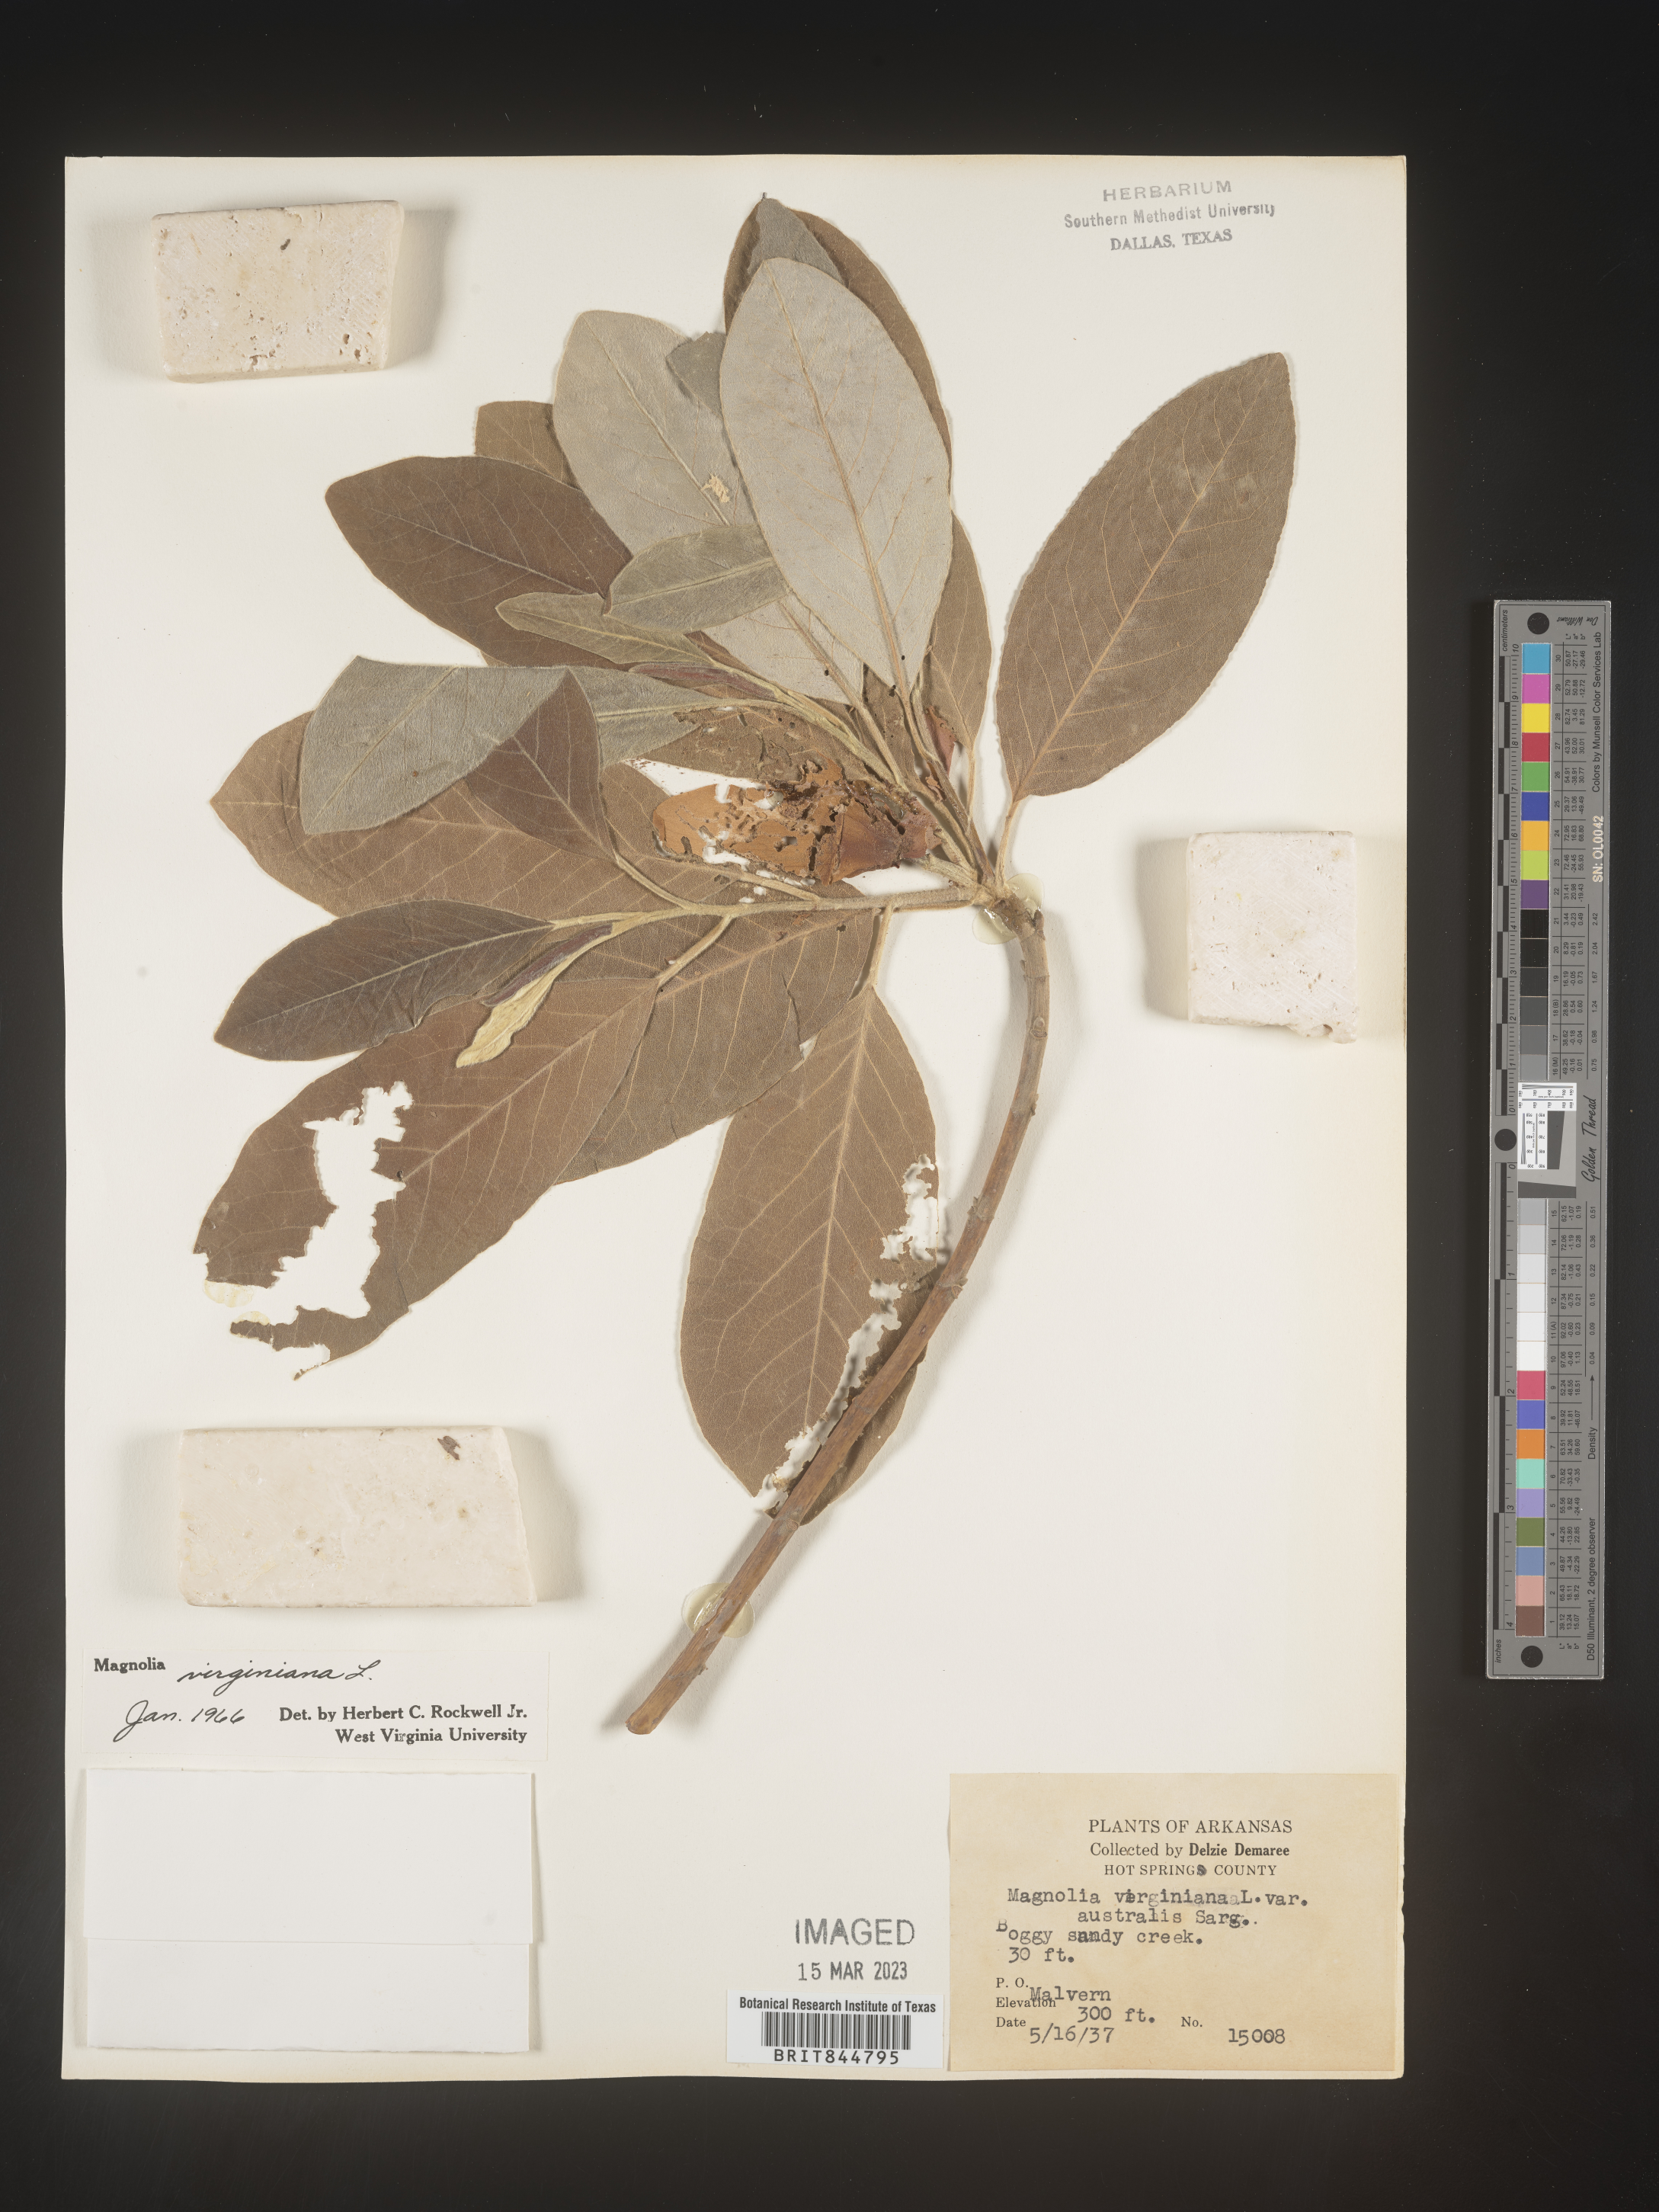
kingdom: Plantae
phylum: Tracheophyta
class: Magnoliopsida
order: Magnoliales
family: Magnoliaceae
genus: Magnolia
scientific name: Magnolia virginiana
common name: Swamp bay
